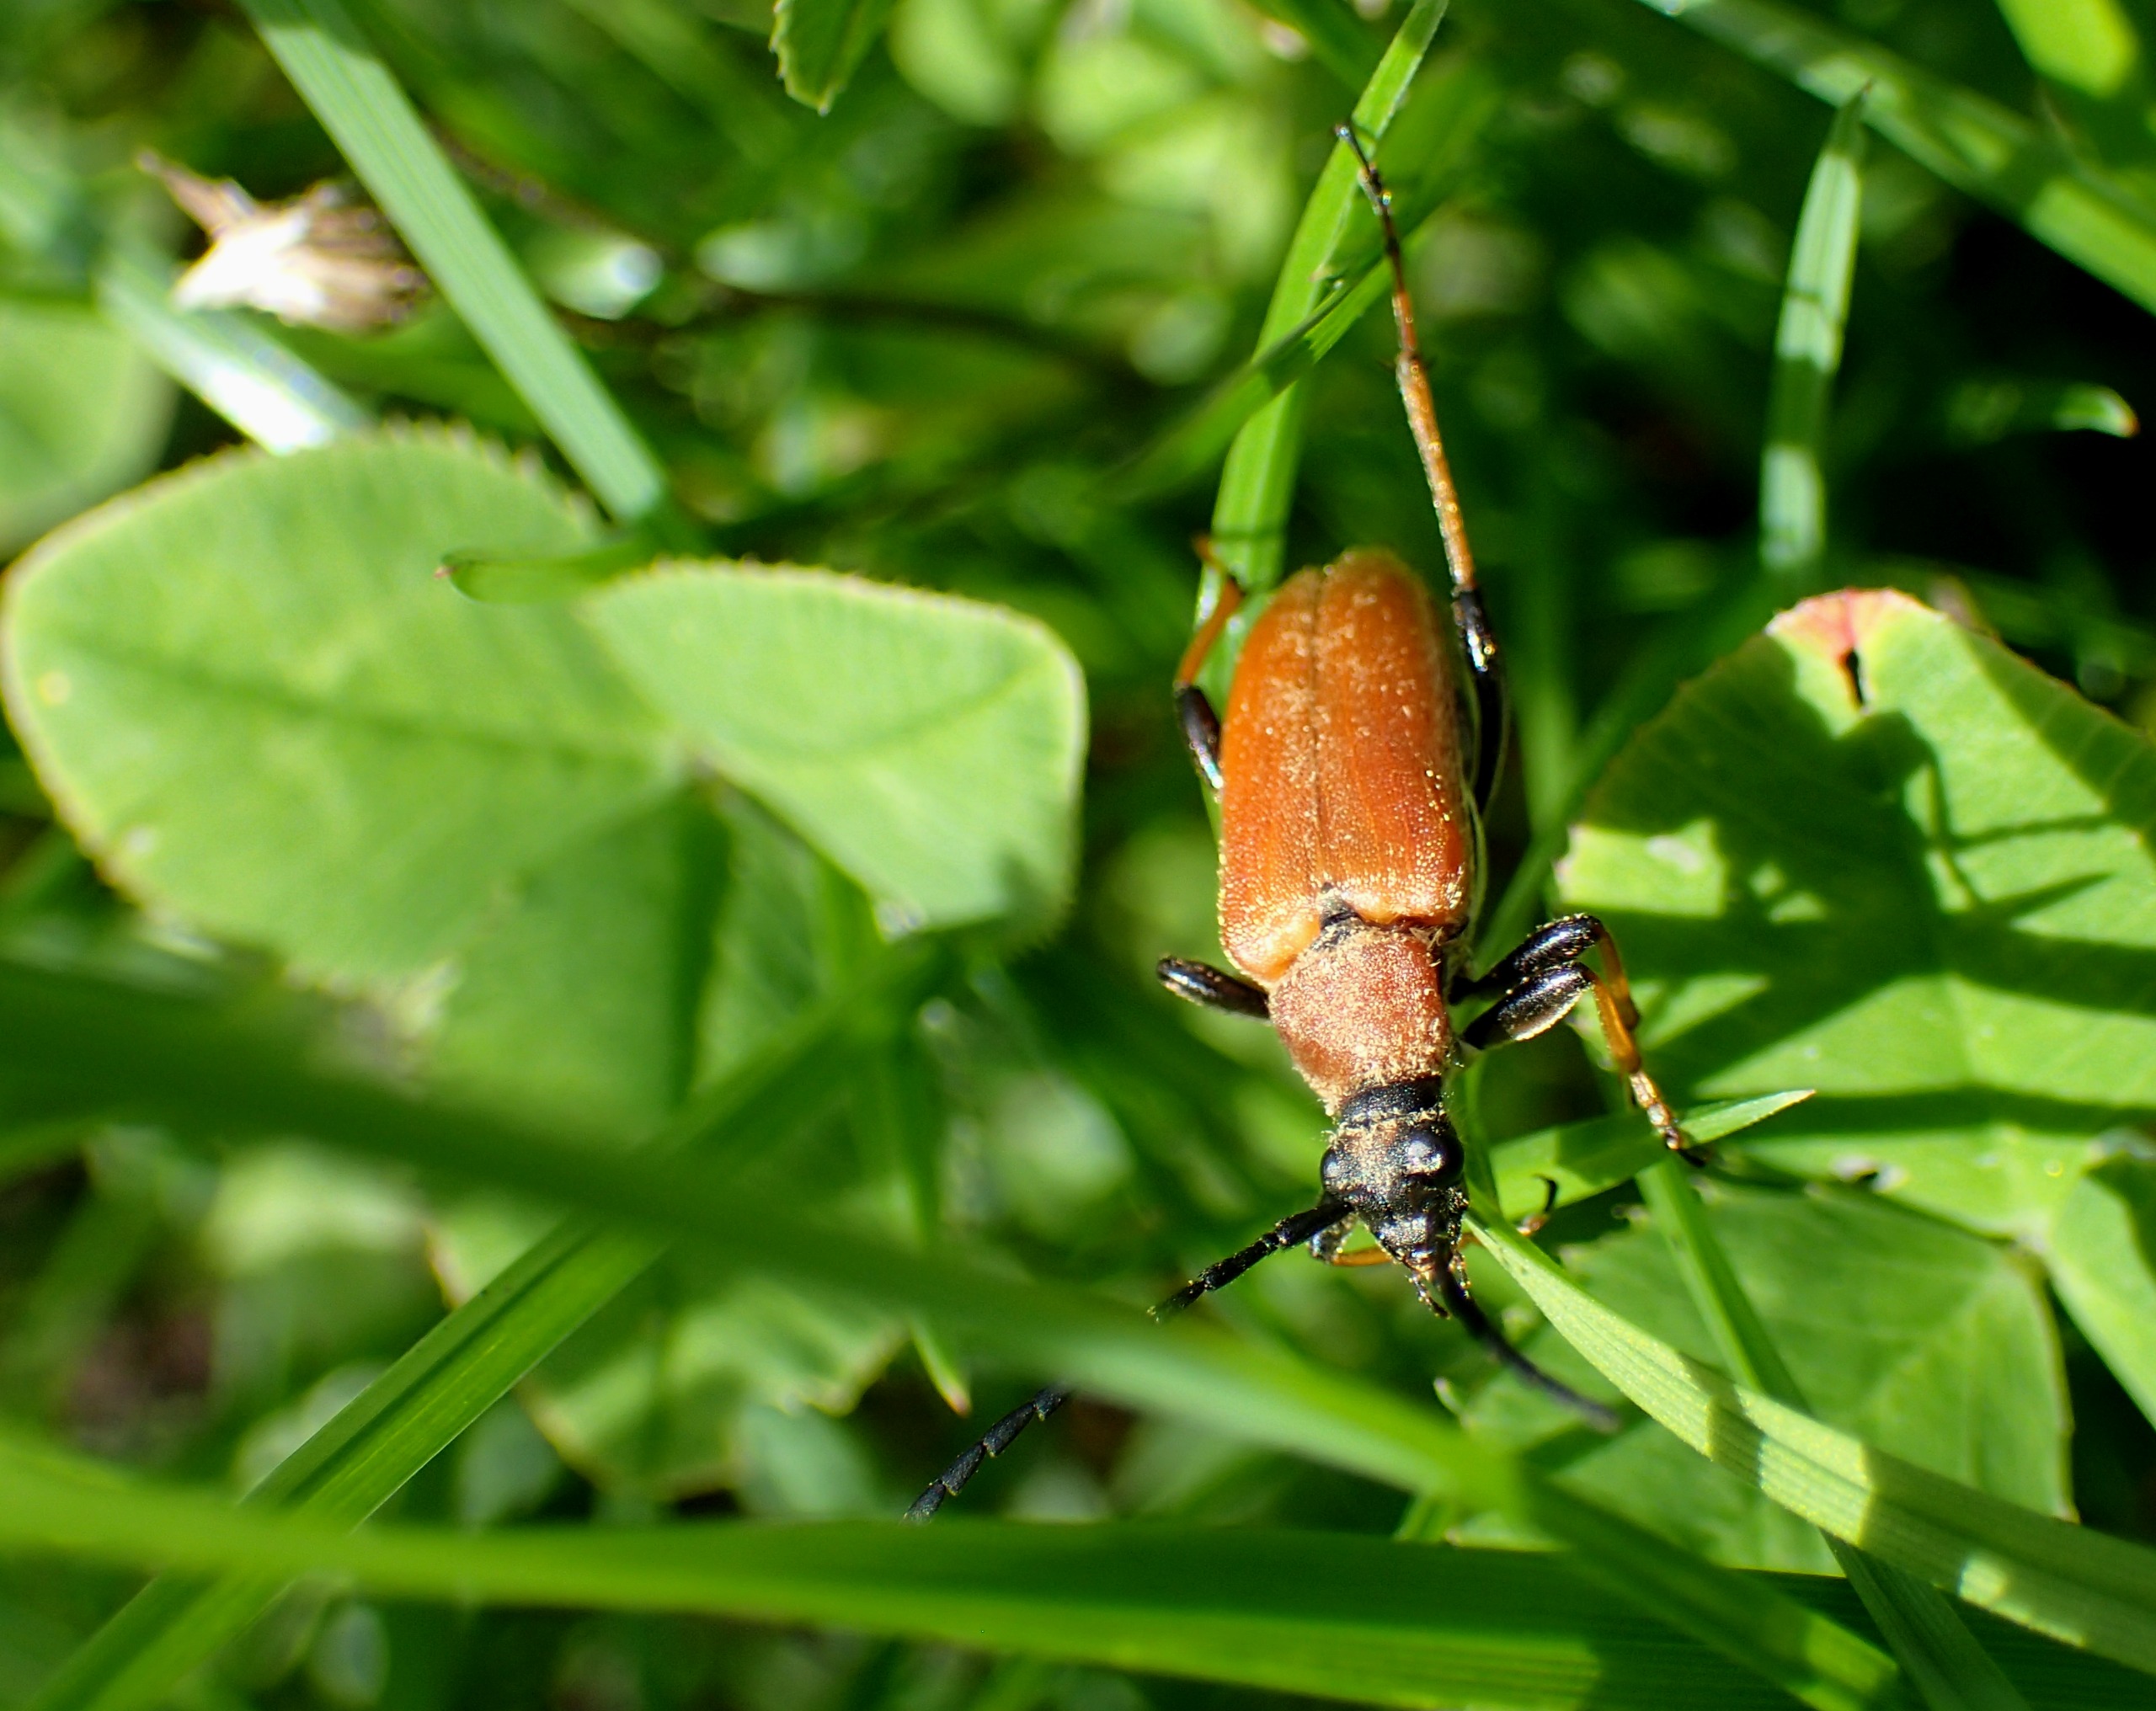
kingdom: Animalia
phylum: Arthropoda
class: Insecta
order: Coleoptera
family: Cerambycidae
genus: Stictoleptura
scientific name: Stictoleptura rubra
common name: Rød blomsterbuk
